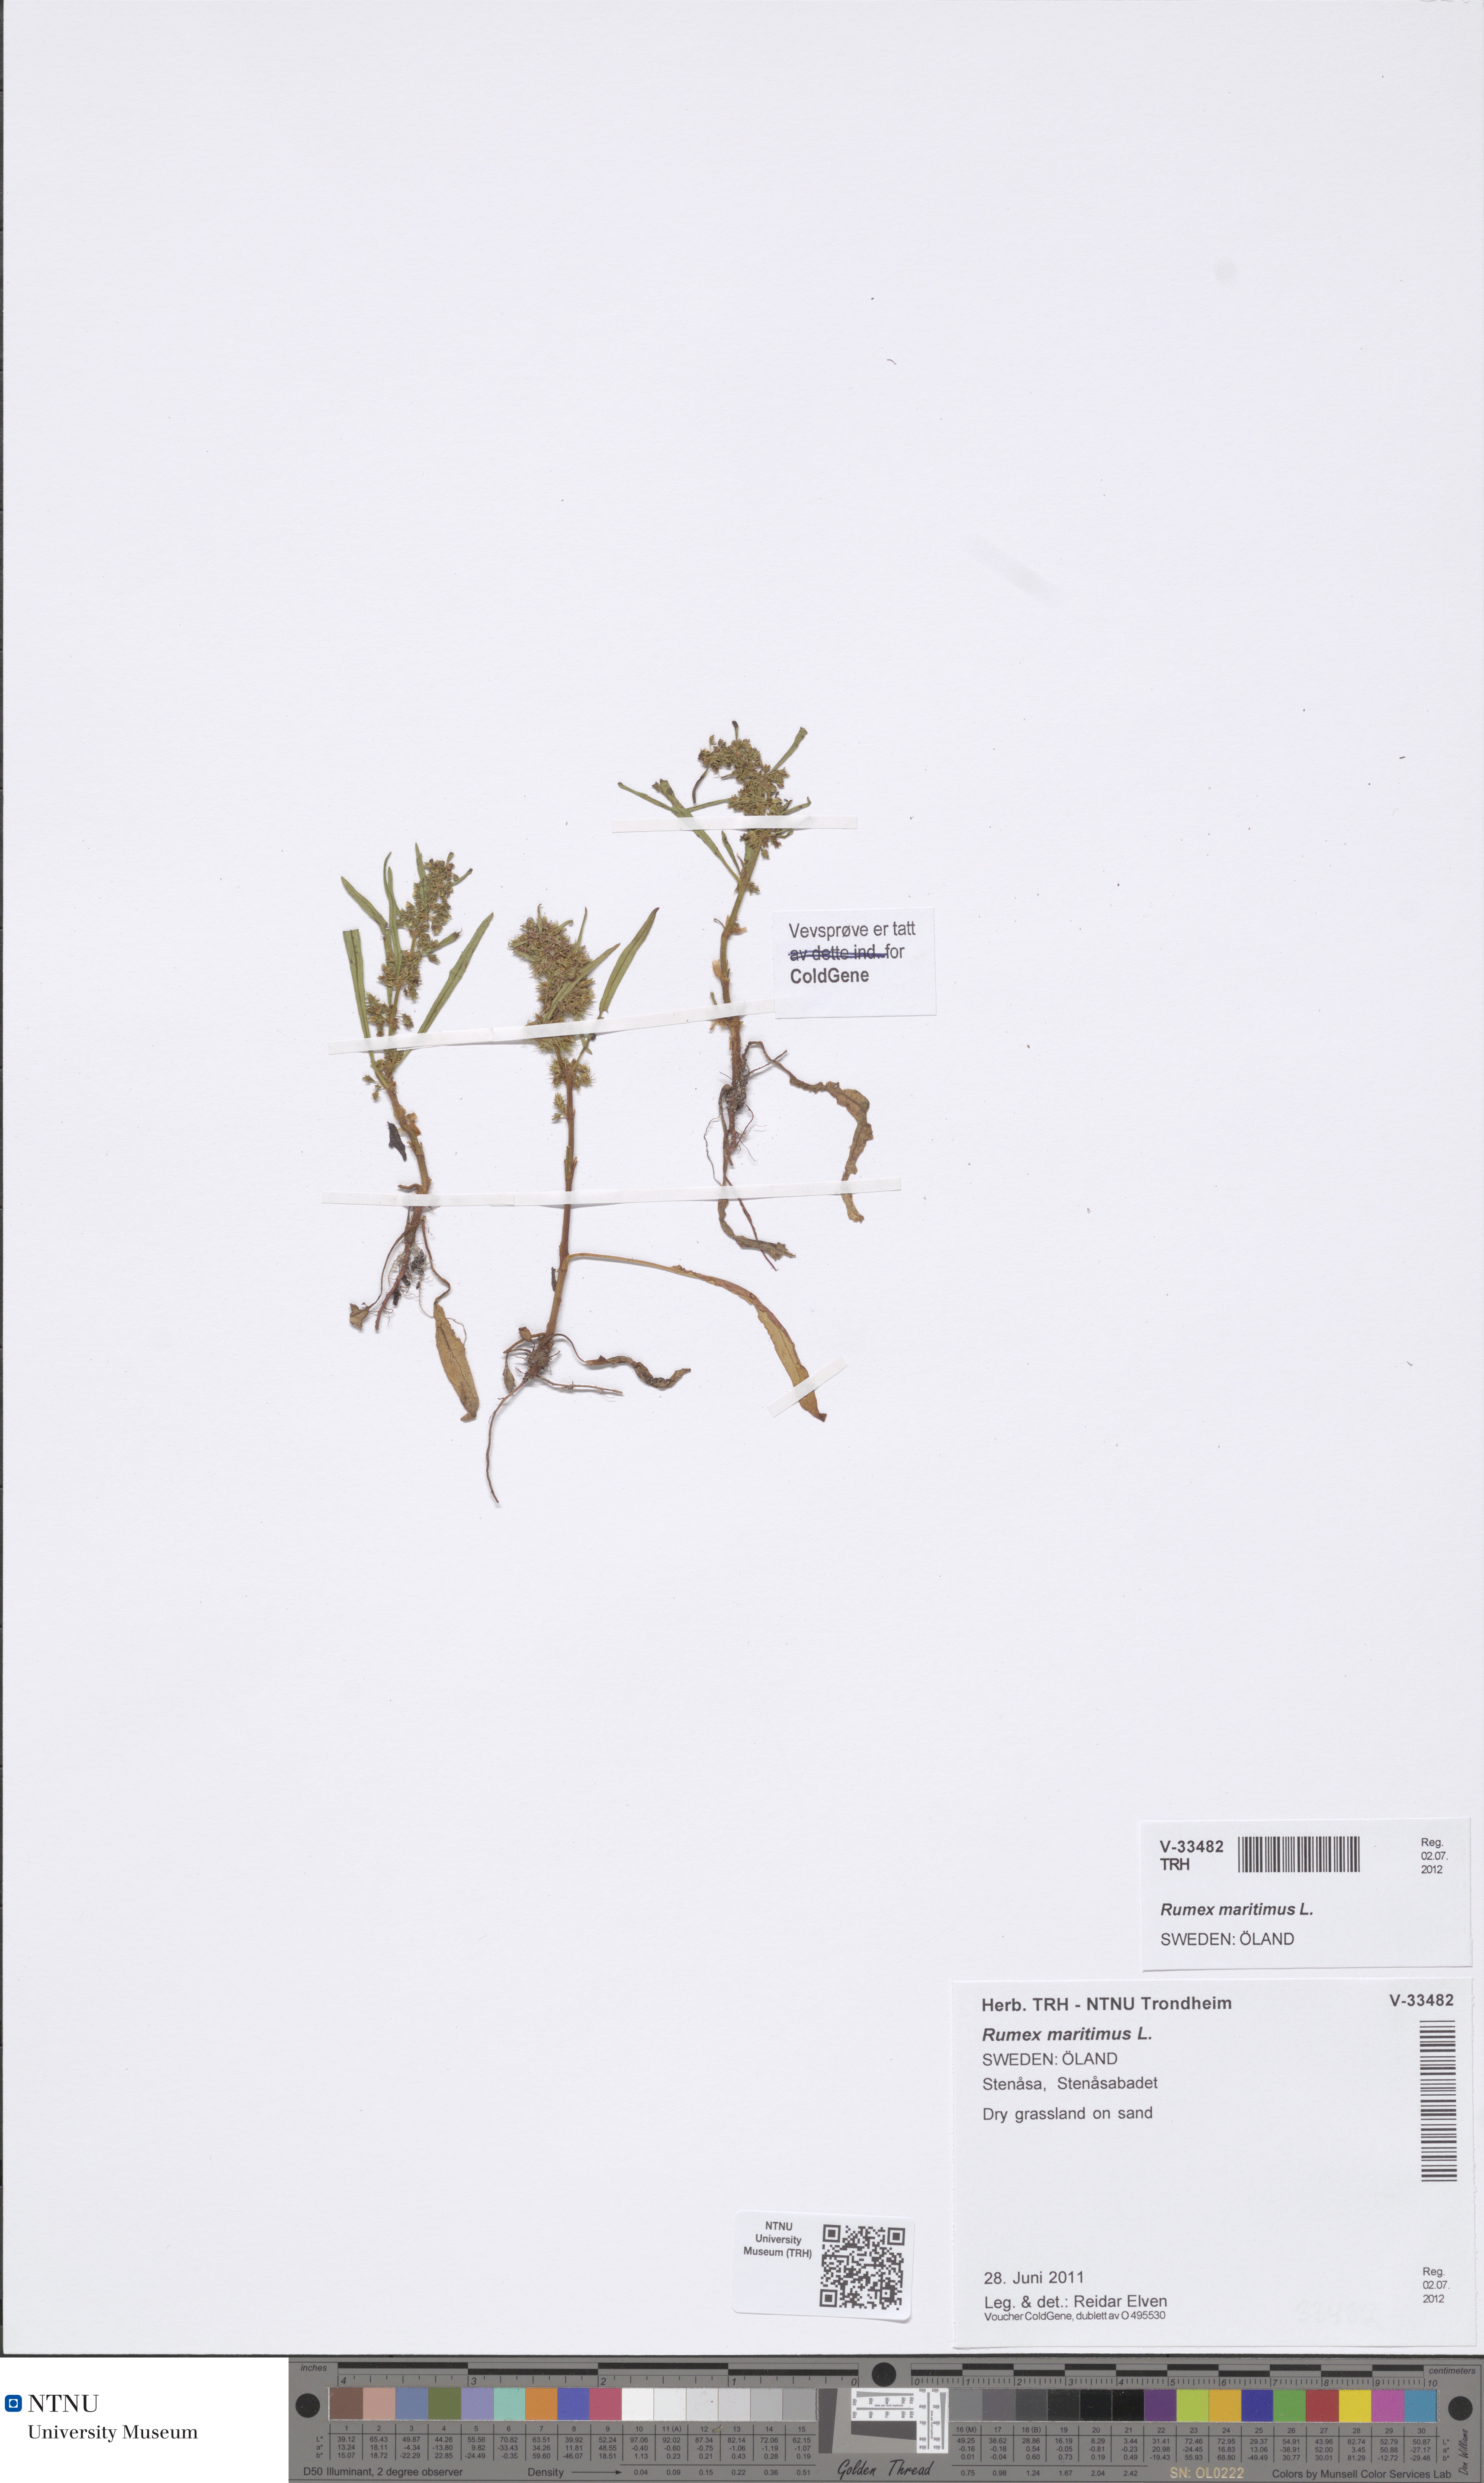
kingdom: Plantae
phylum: Tracheophyta
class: Magnoliopsida
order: Caryophyllales
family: Polygonaceae
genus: Rumex
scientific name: Rumex maritimus
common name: Golden dock
